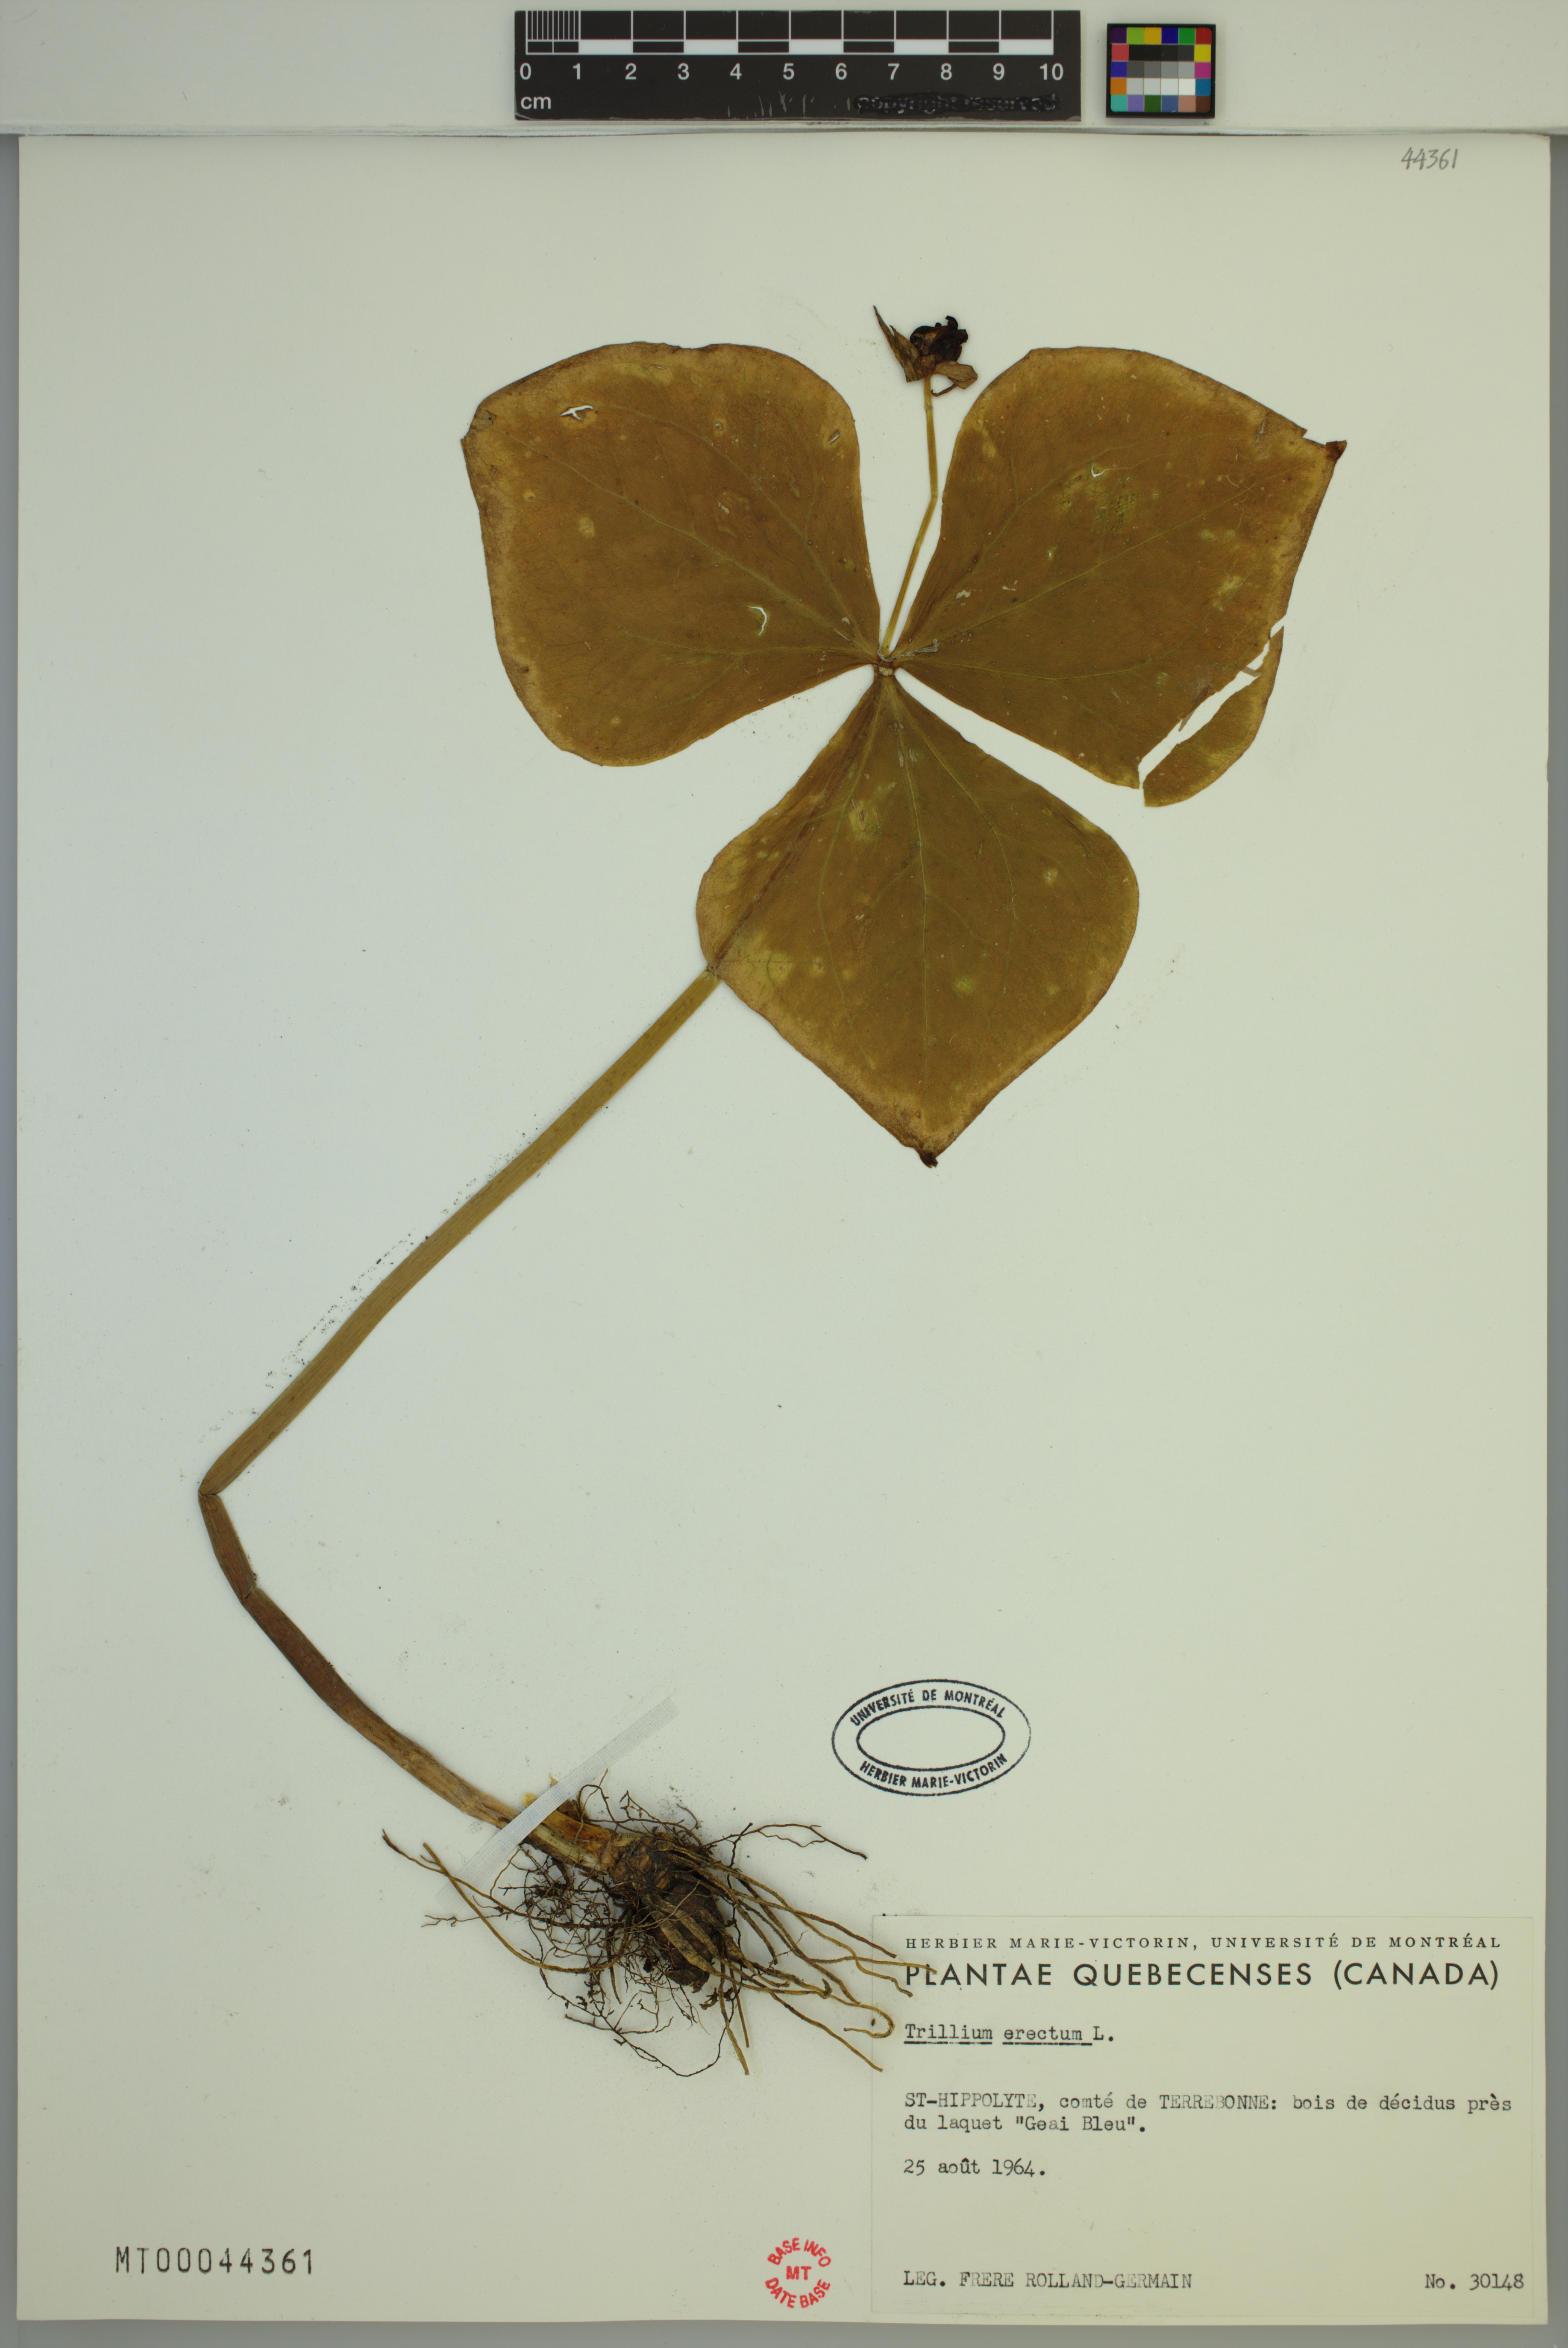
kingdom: Plantae
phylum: Tracheophyta
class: Liliopsida
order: Liliales
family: Melanthiaceae
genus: Trillium
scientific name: Trillium erectum
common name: Purple trillium
